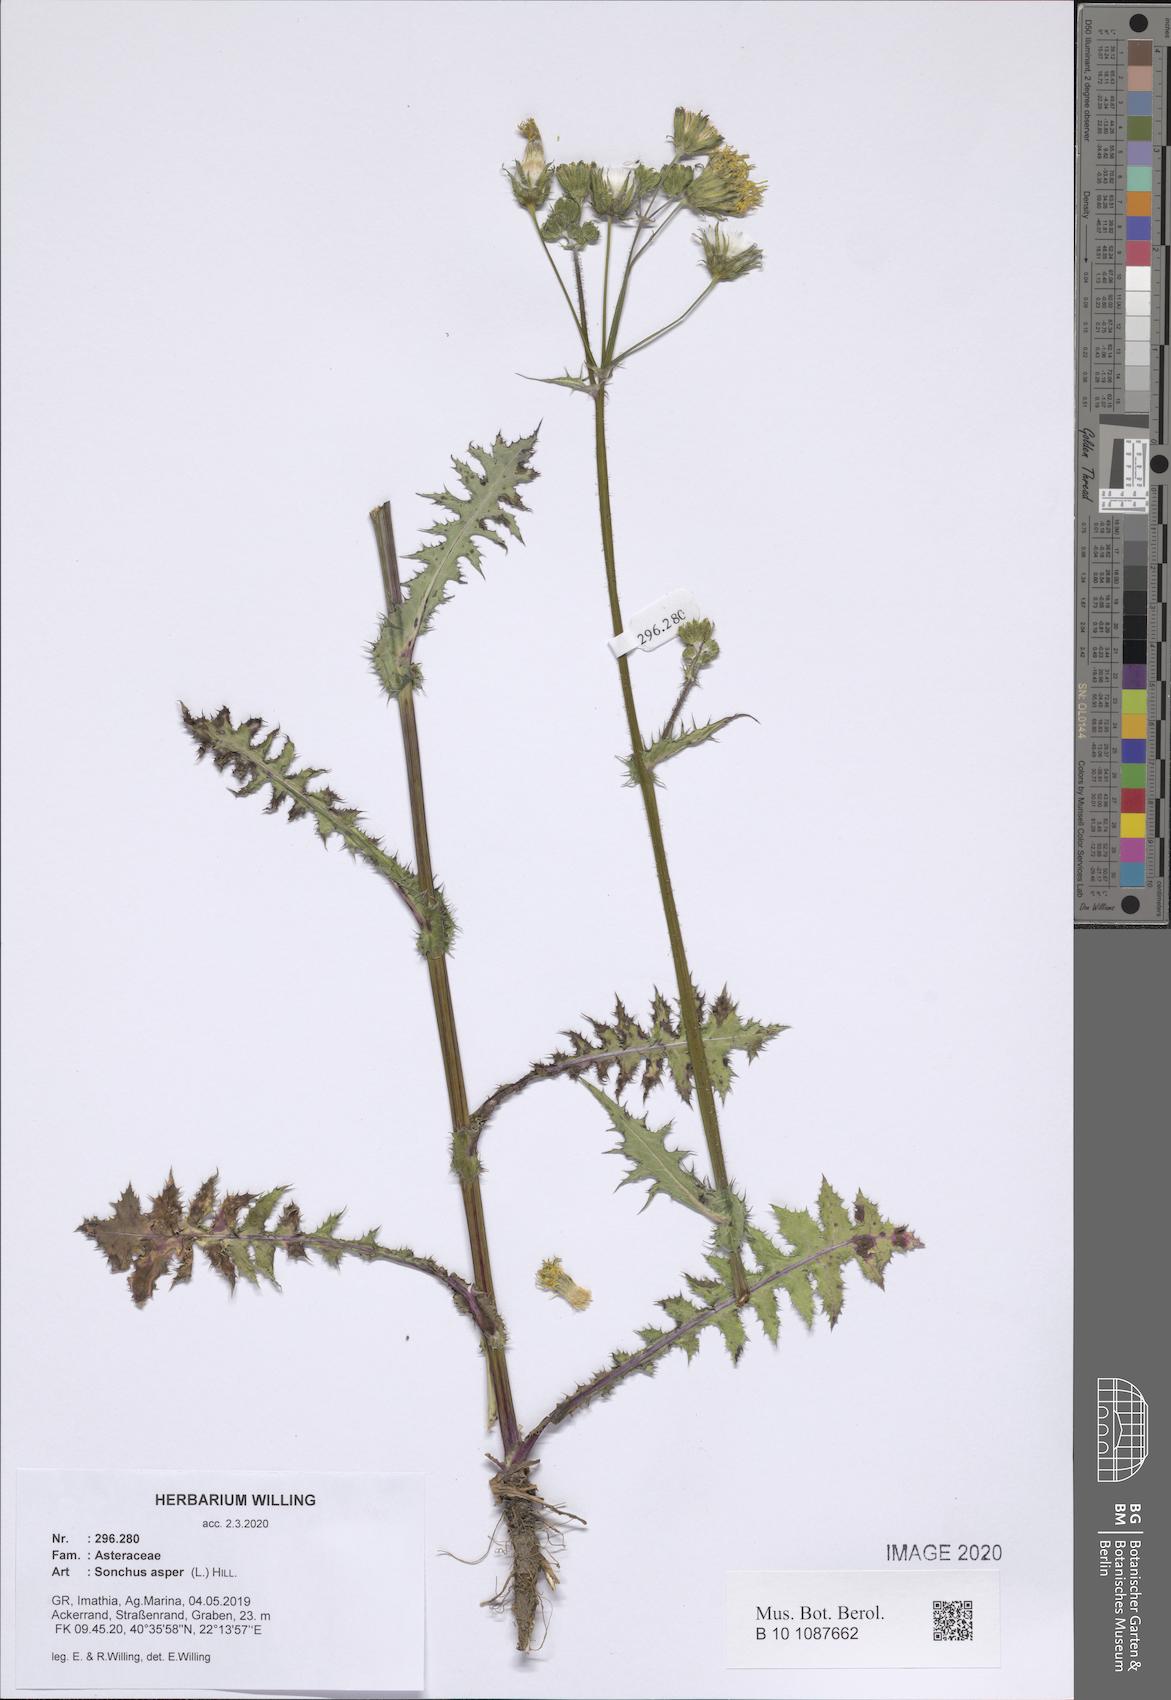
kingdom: Plantae
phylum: Tracheophyta
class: Magnoliopsida
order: Asterales
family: Asteraceae
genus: Sonchus
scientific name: Sonchus asper
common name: Prickly sow-thistle
